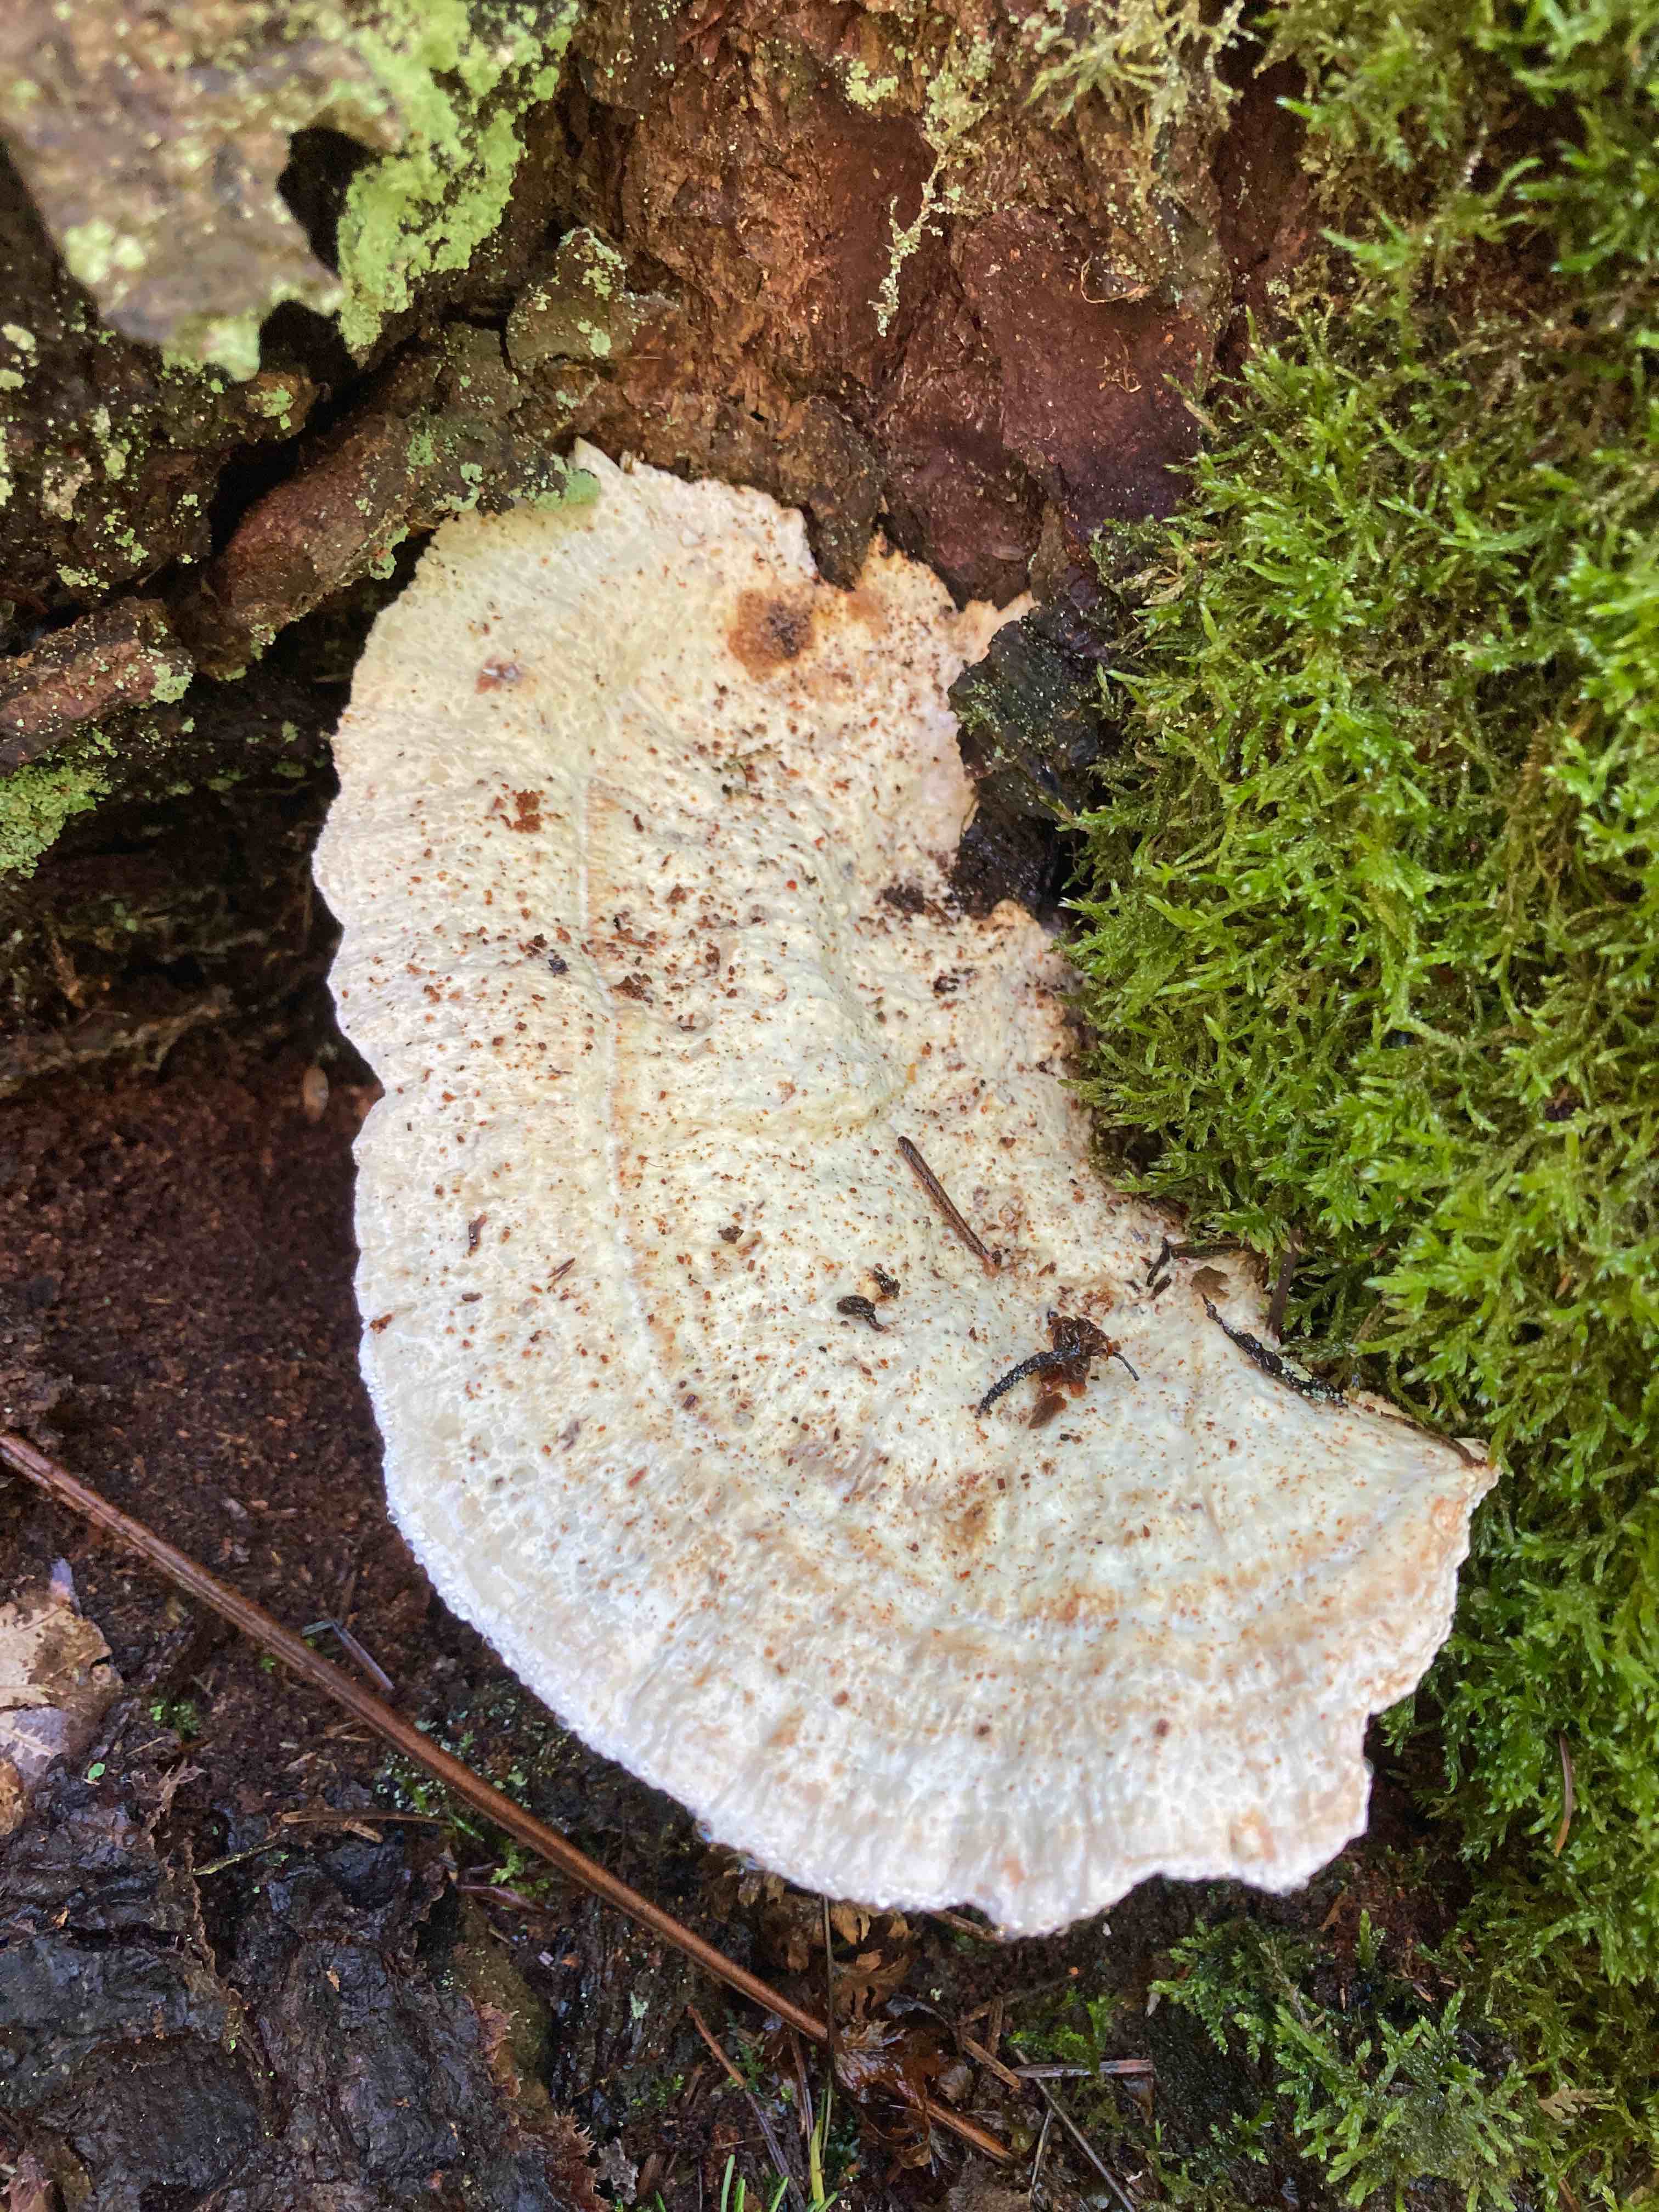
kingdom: Fungi
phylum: Basidiomycota
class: Agaricomycetes
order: Polyporales
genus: Calcipostia
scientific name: Calcipostia guttulata
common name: dråbe-kødporesvamp
